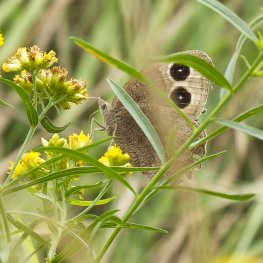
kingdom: Animalia
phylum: Arthropoda
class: Insecta
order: Lepidoptera
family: Nymphalidae
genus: Cercyonis
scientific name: Cercyonis pegala
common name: Common Wood-Nymph
